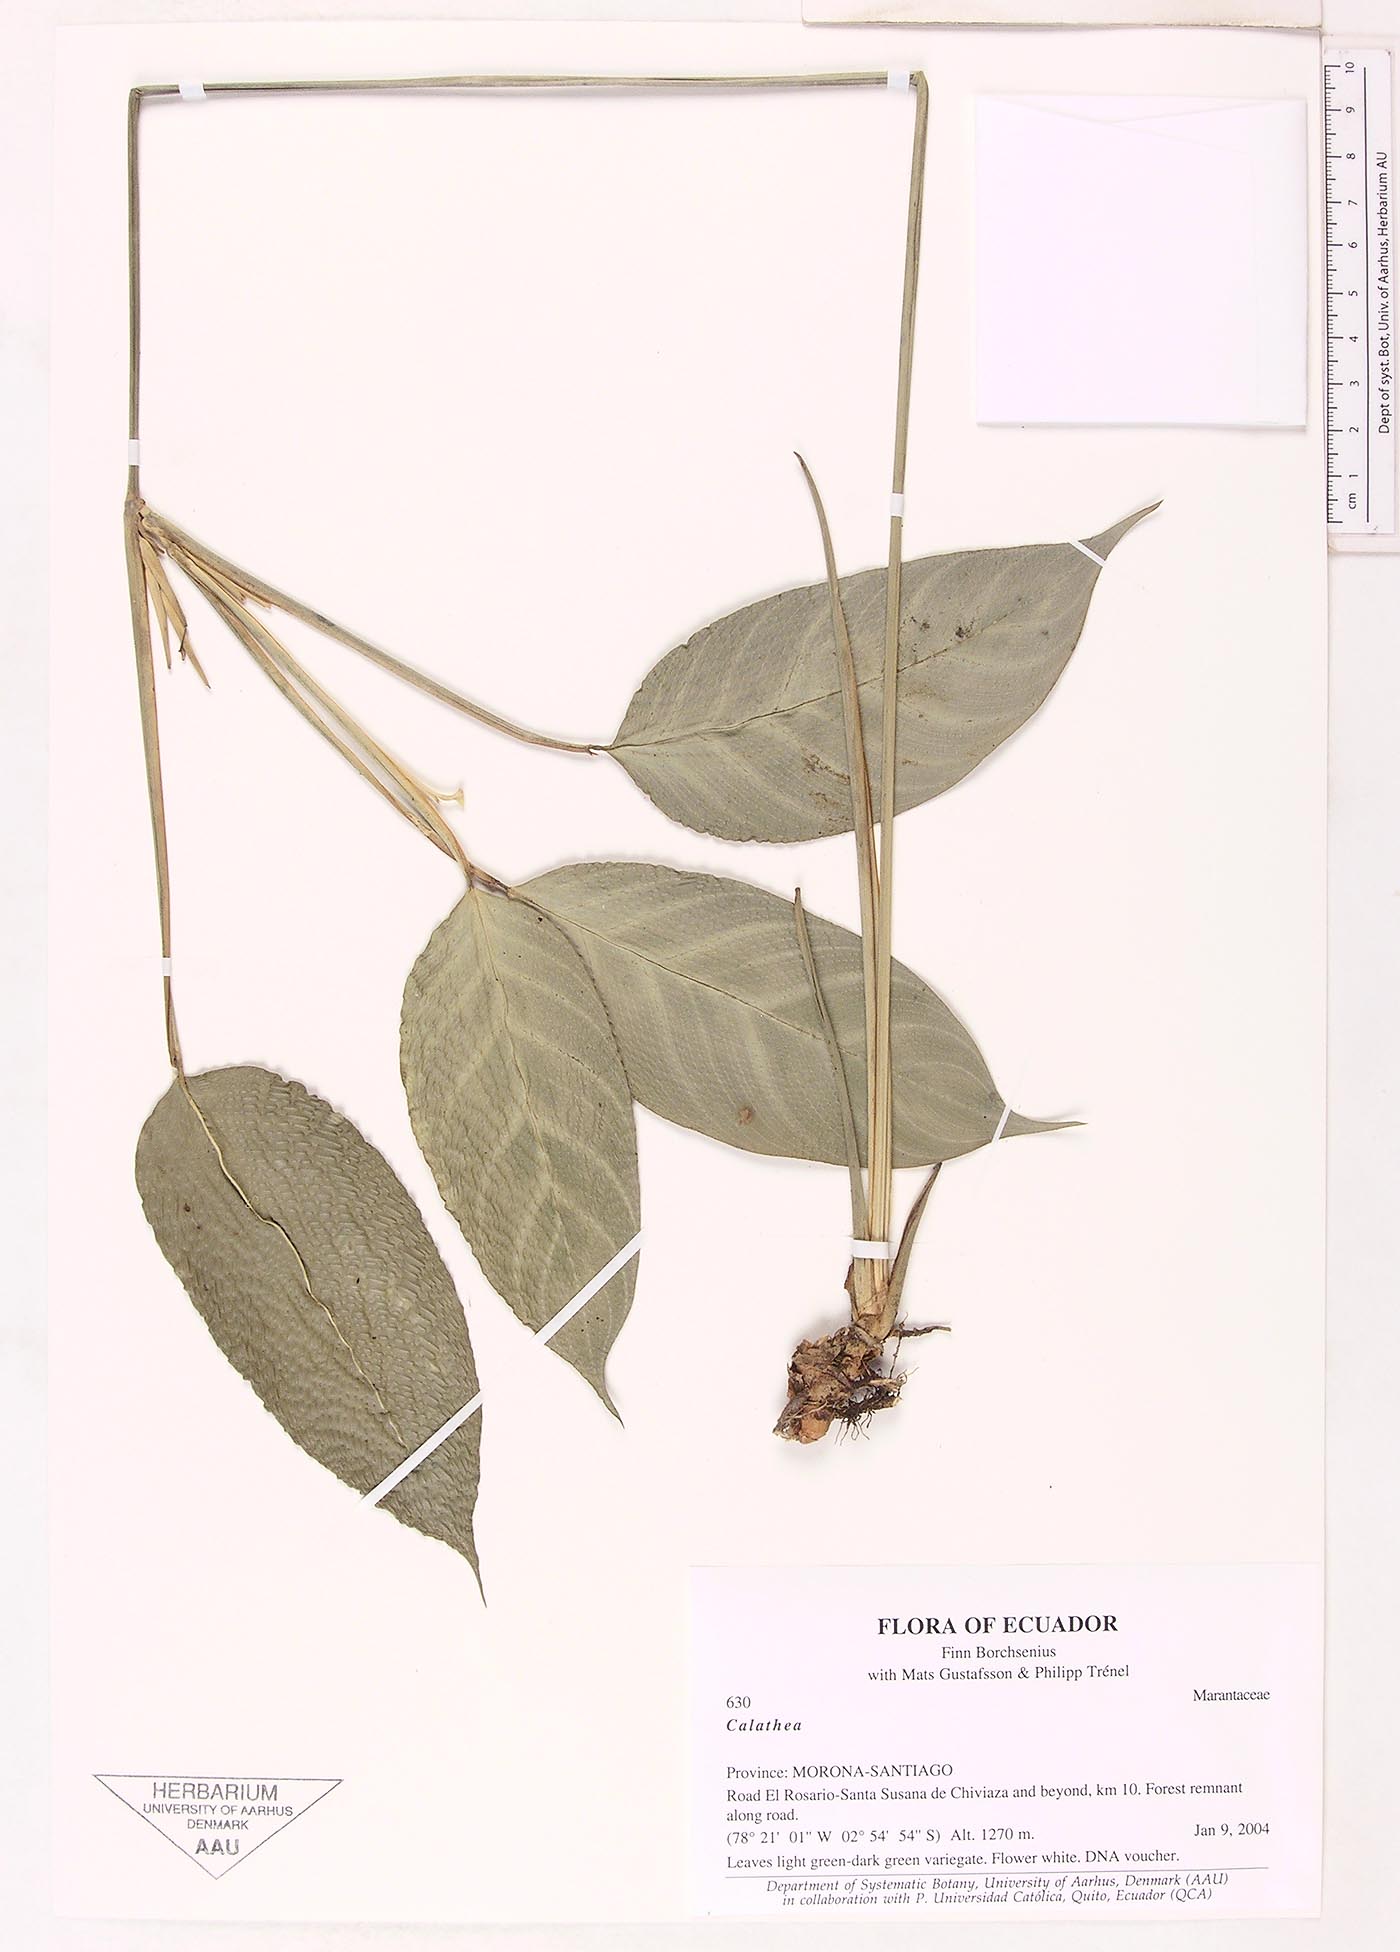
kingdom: Plantae
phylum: Tracheophyta
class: Liliopsida
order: Zingiberales
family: Marantaceae
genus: Maranta
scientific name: Maranta
